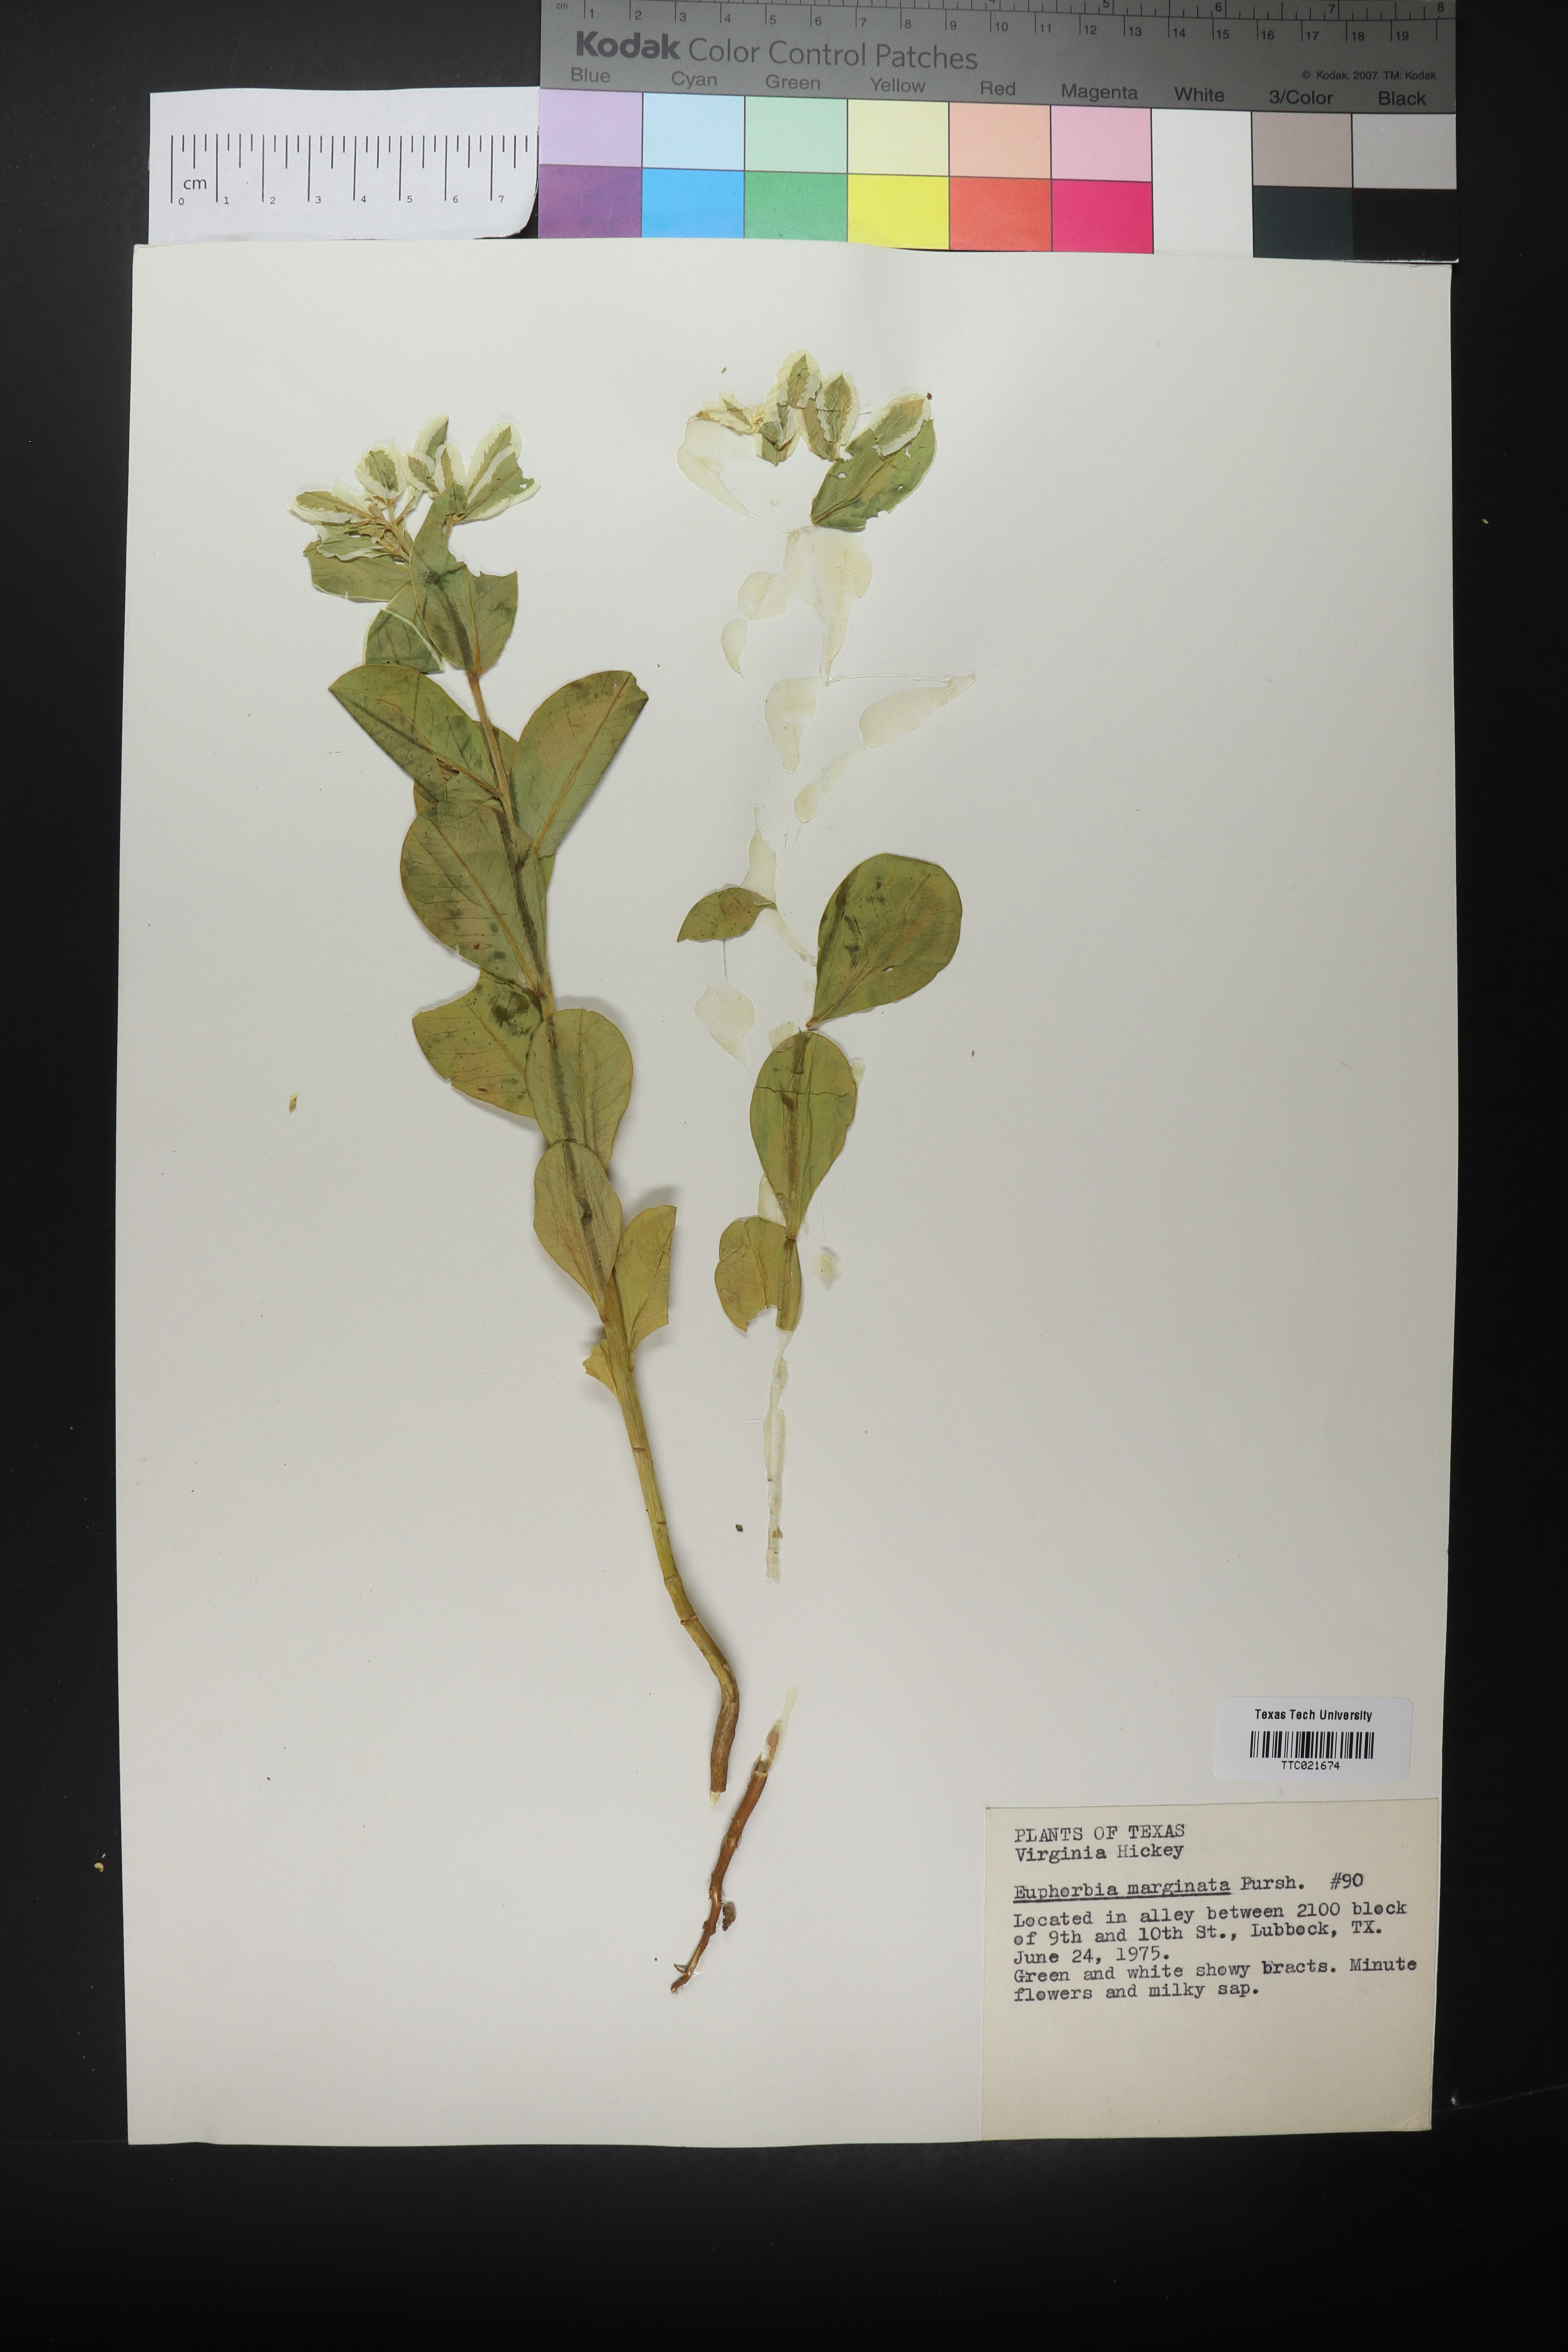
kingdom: Plantae
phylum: Tracheophyta
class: Magnoliopsida
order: Malpighiales
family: Euphorbiaceae
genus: Euphorbia
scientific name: Euphorbia marginata
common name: Ghostweed
